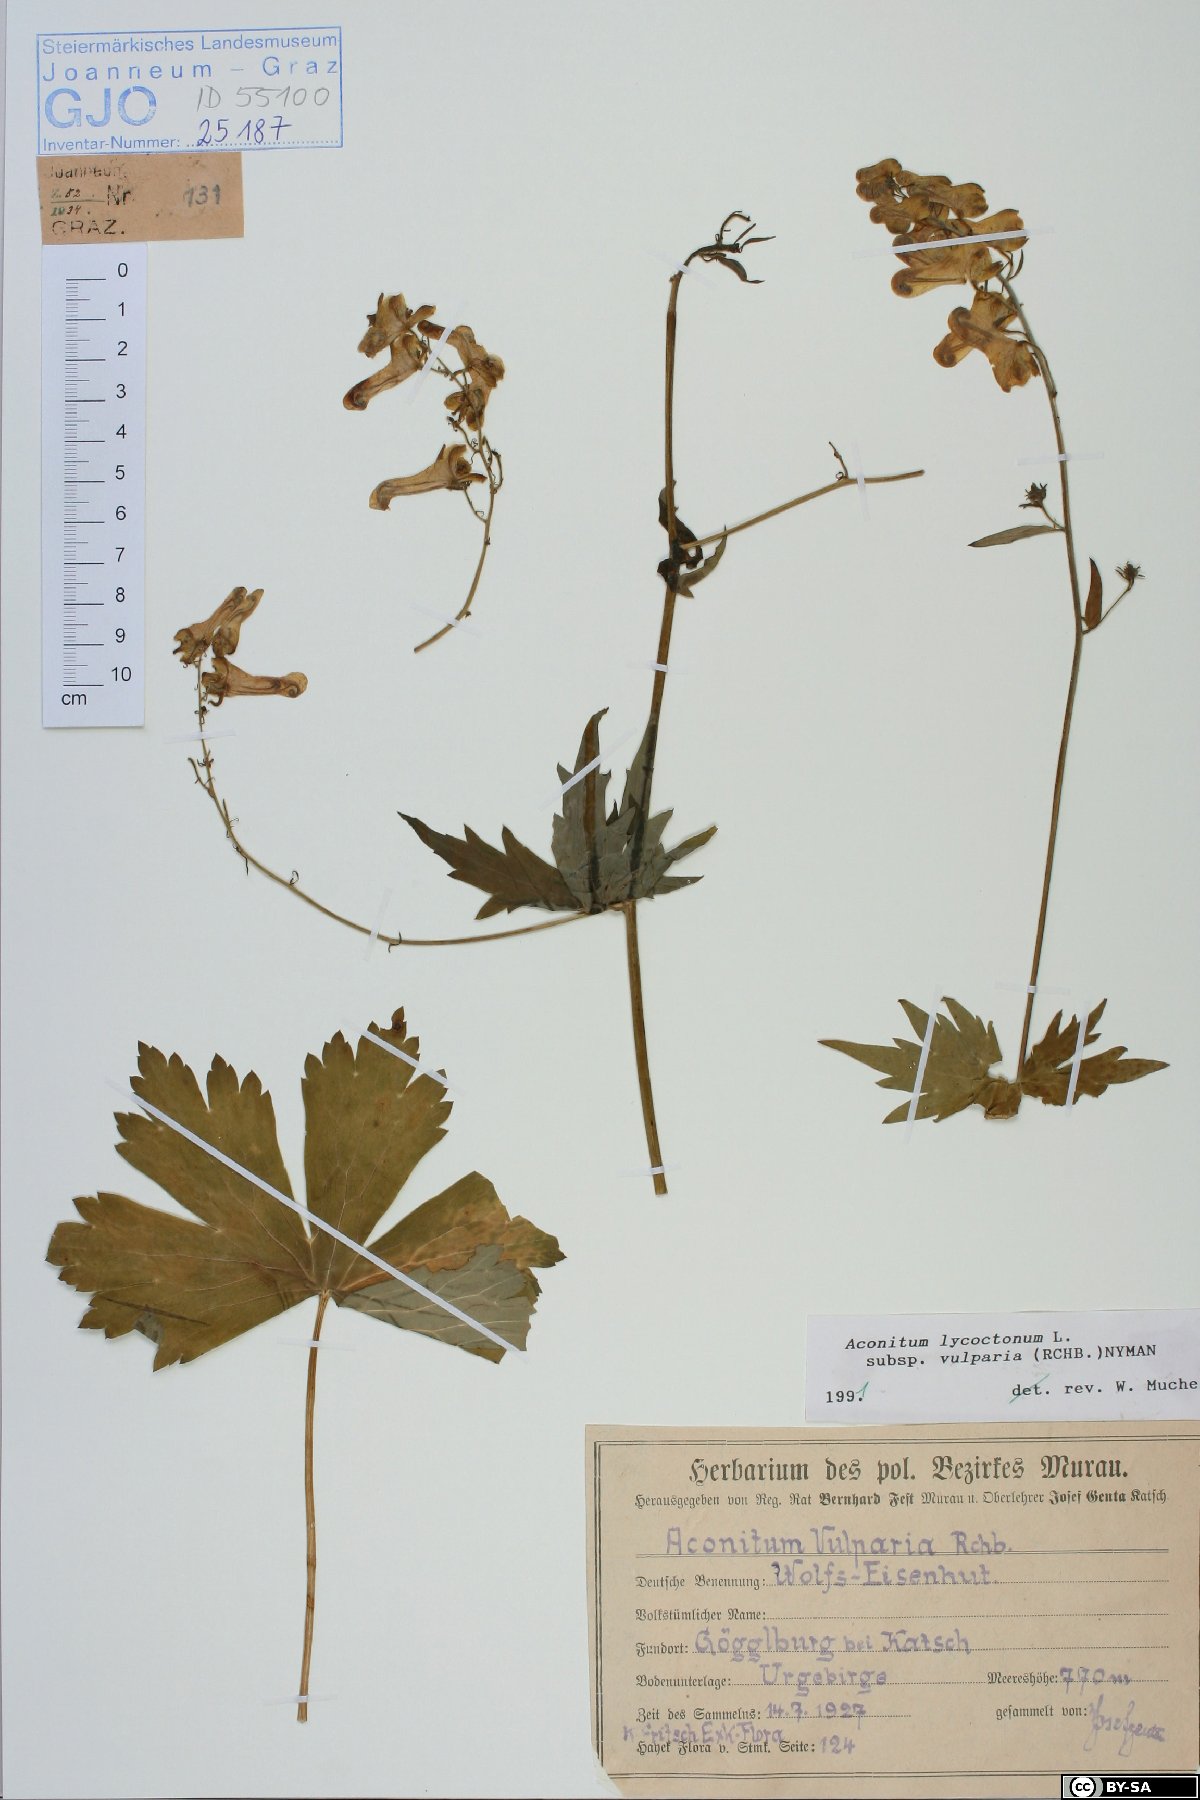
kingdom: Plantae
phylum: Tracheophyta
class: Magnoliopsida
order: Ranunculales
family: Ranunculaceae
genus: Aconitum
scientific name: Aconitum lycoctonum
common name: Wolf's-bane
